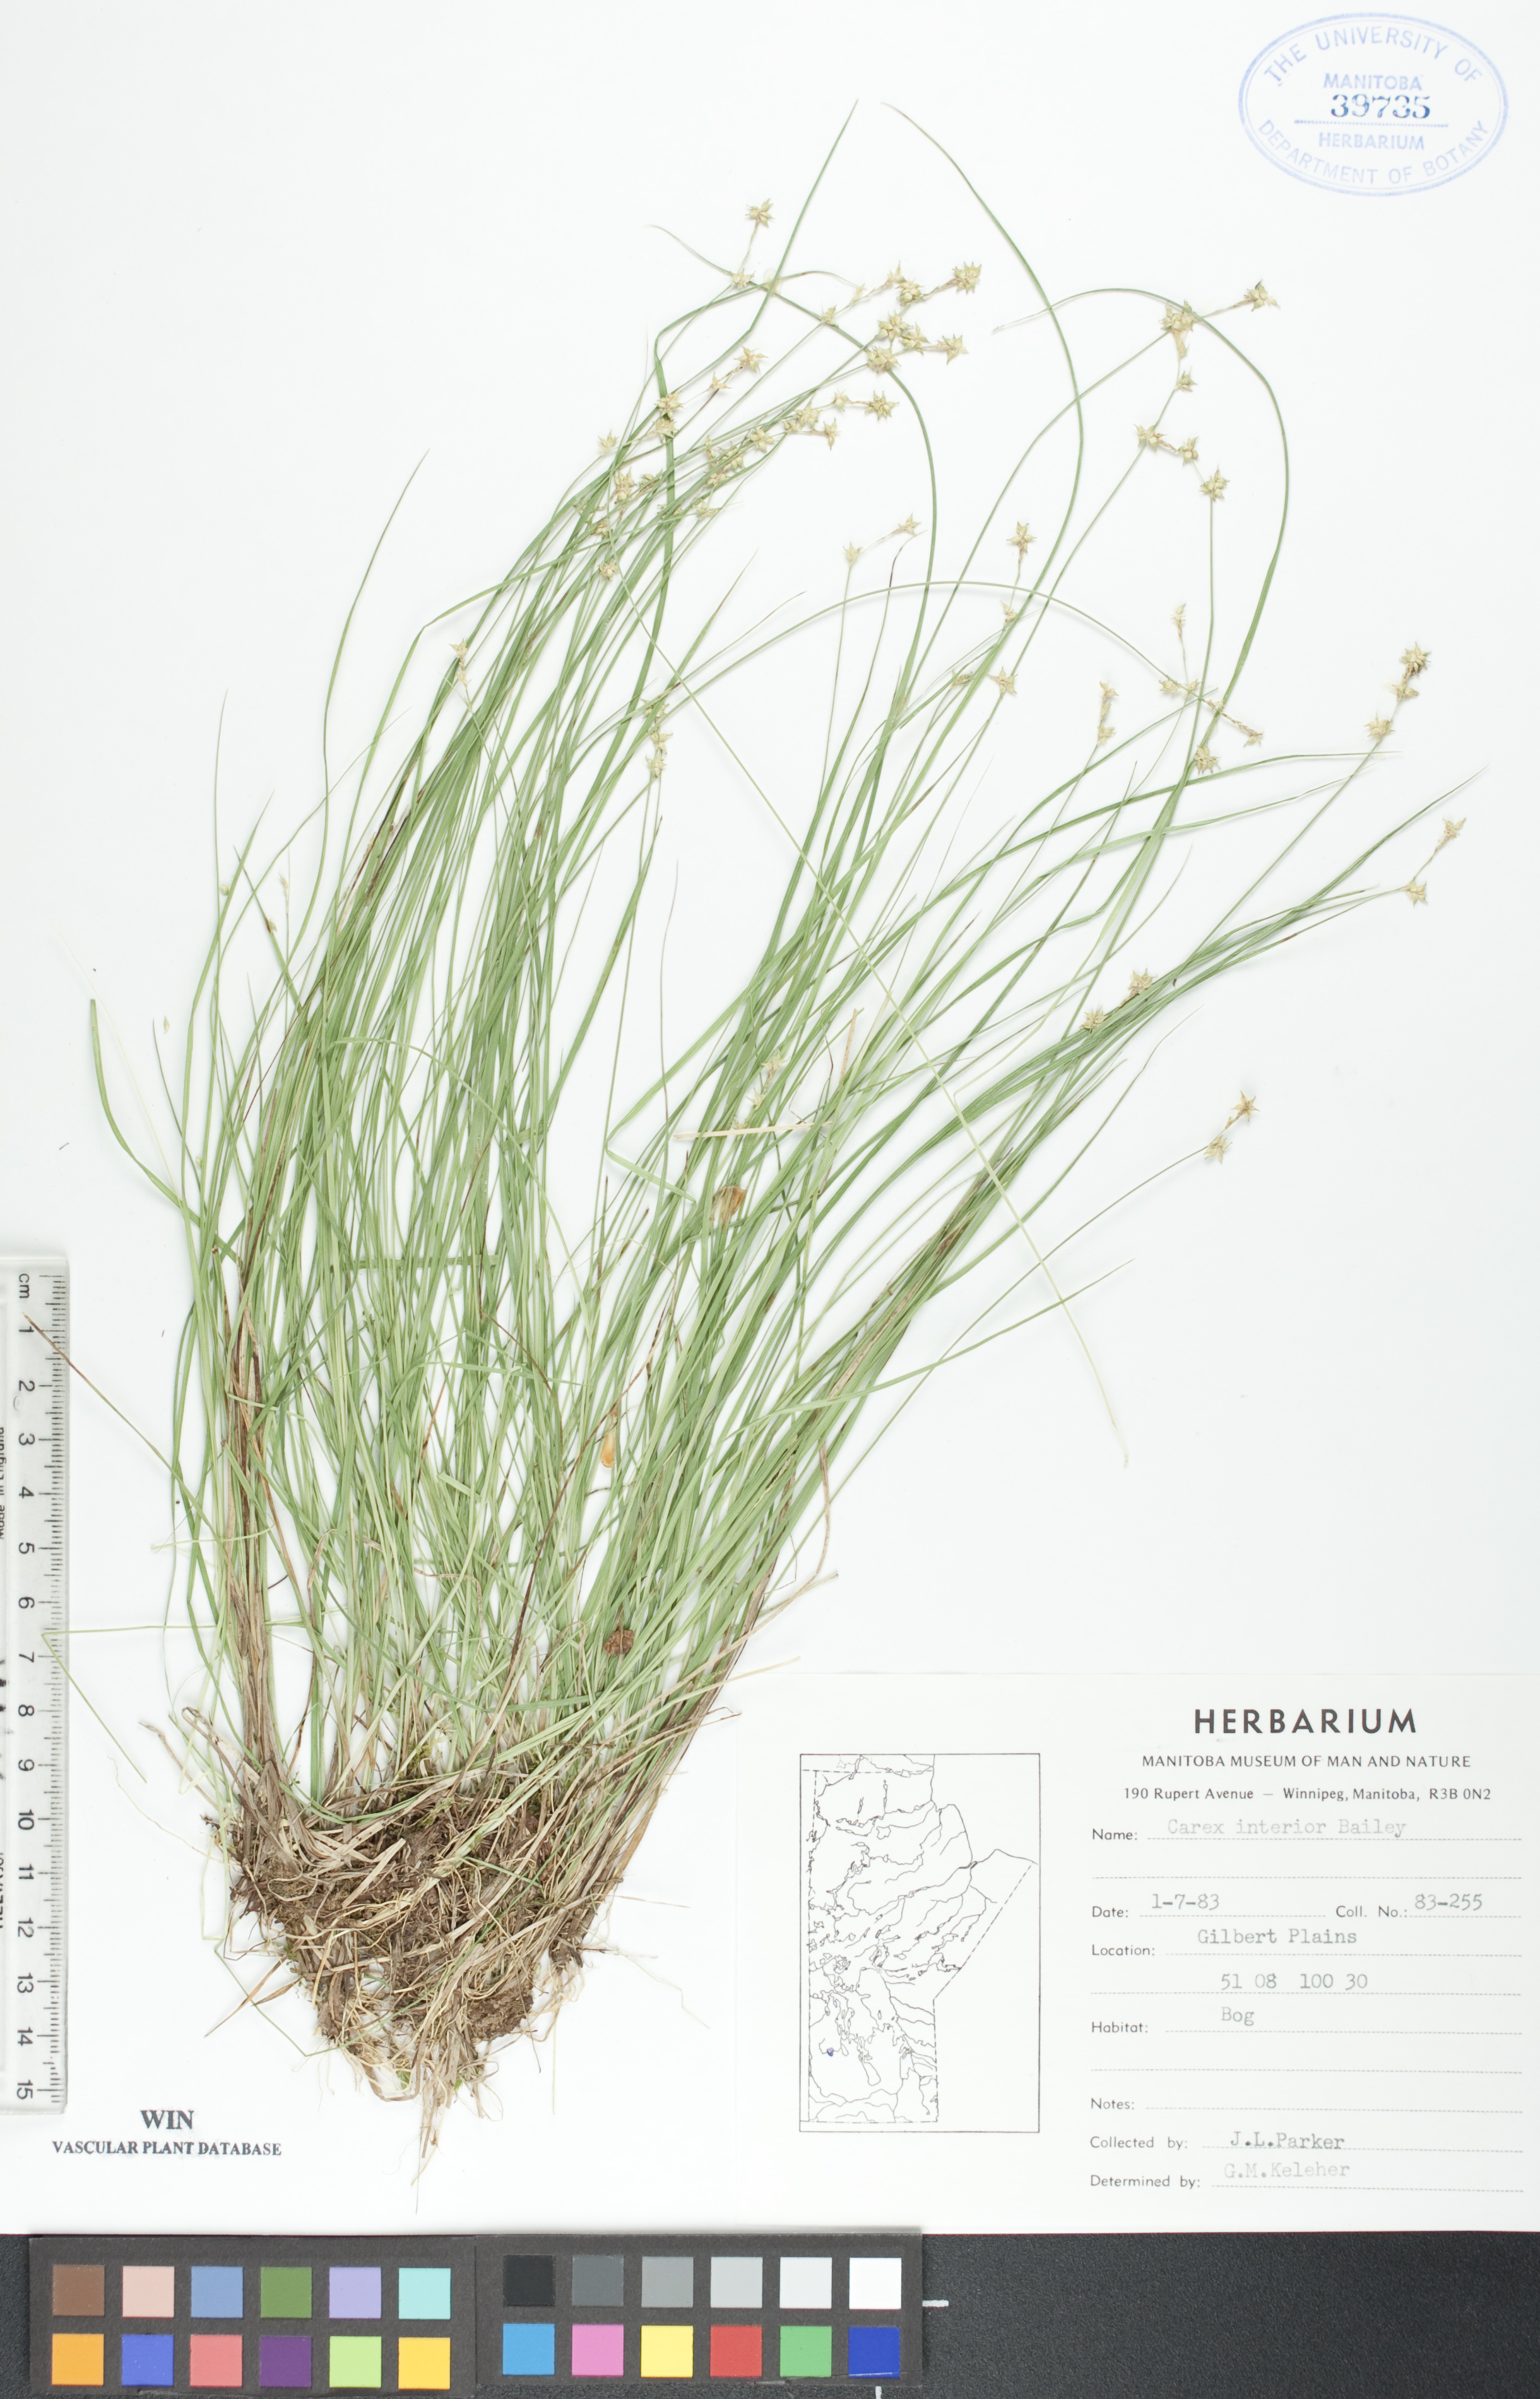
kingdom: Plantae
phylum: Tracheophyta
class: Liliopsida
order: Poales
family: Cyperaceae
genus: Carex
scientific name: Carex interior
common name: Inland sedge
